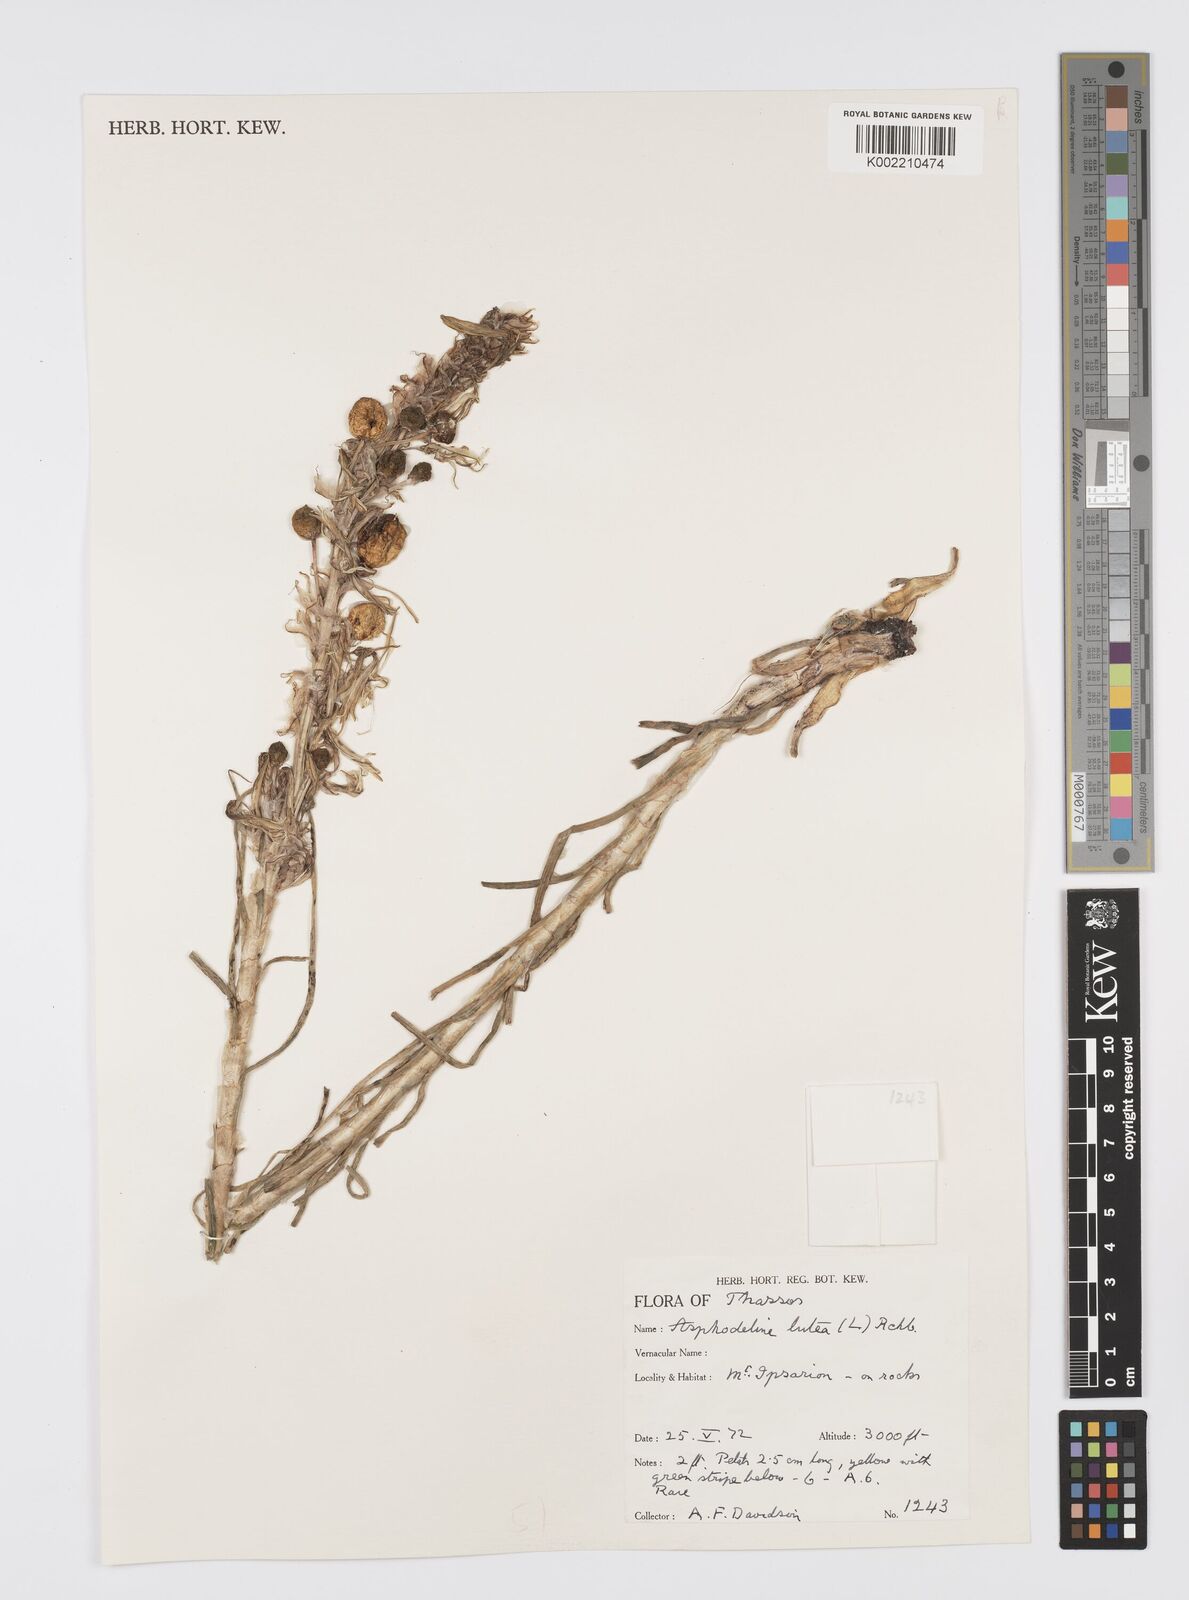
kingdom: Plantae
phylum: Tracheophyta
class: Liliopsida
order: Asparagales
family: Asphodelaceae
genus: Asphodeline
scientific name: Asphodeline lutea
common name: Yellow asphodel
